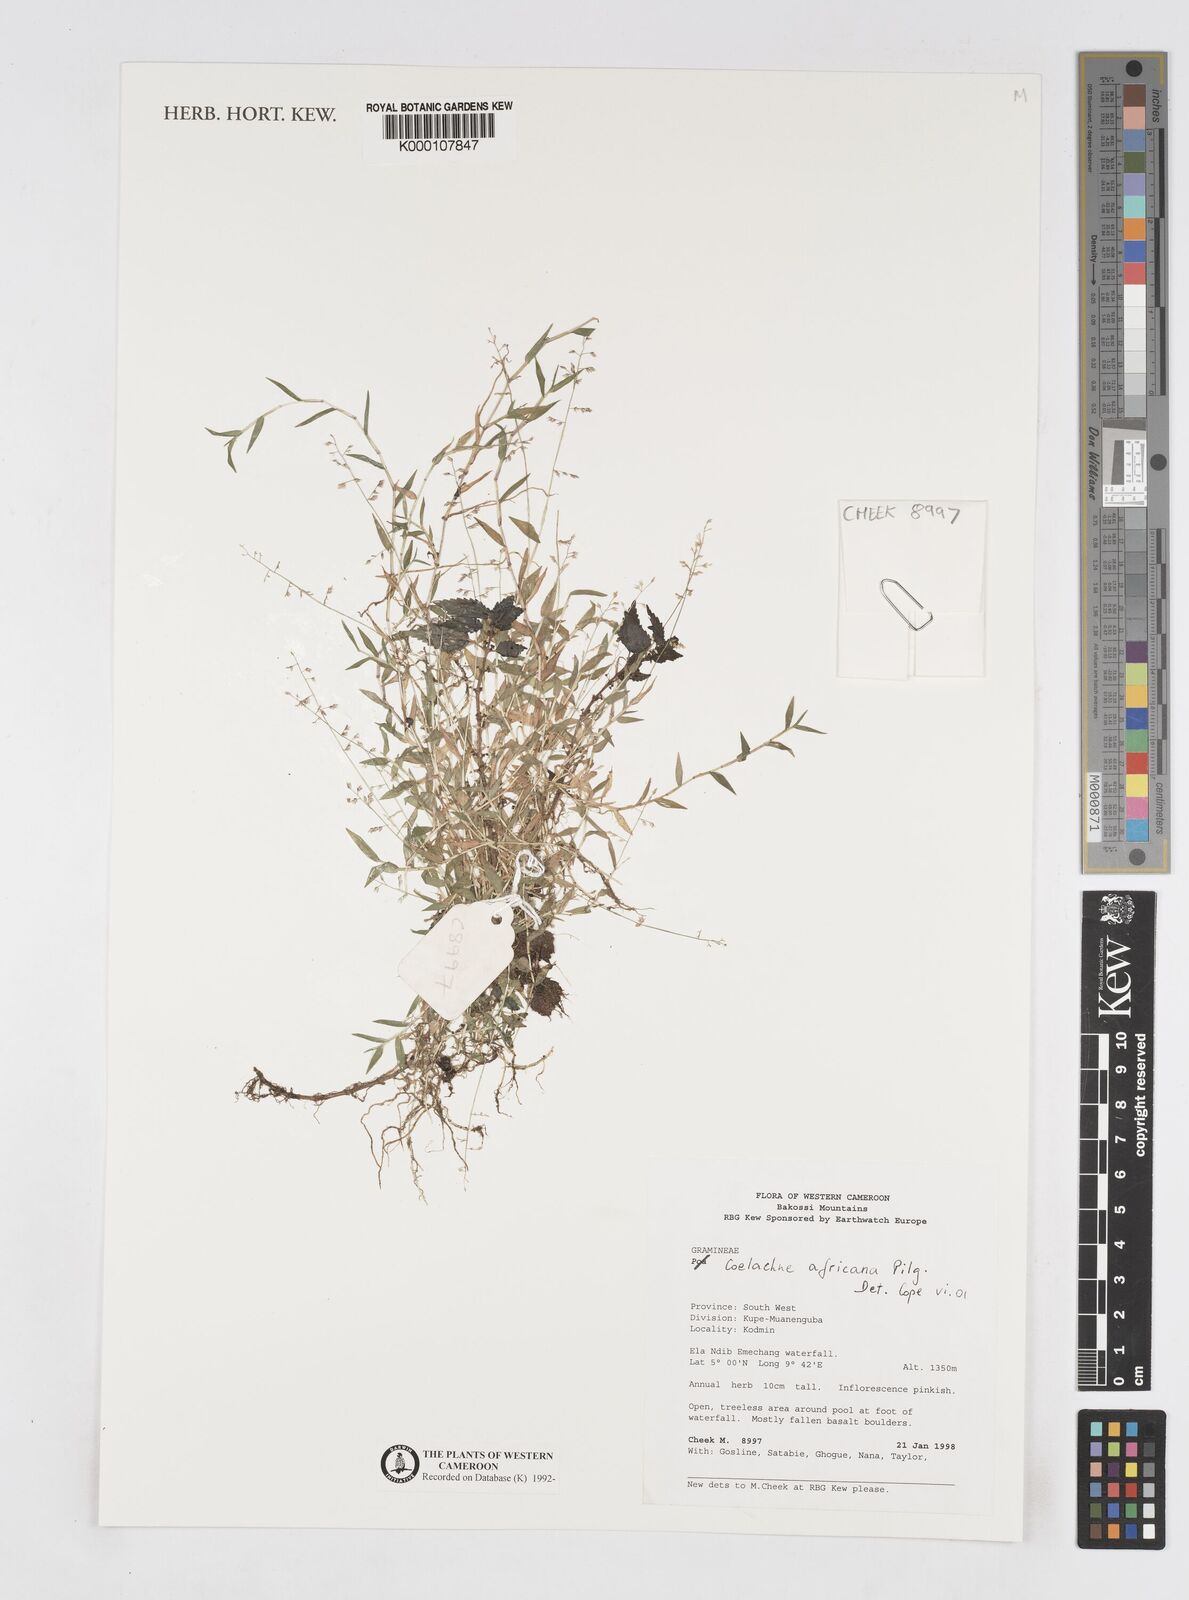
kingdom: Plantae
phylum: Tracheophyta
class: Liliopsida
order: Poales
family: Poaceae
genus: Coelachne
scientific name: Coelachne africana
